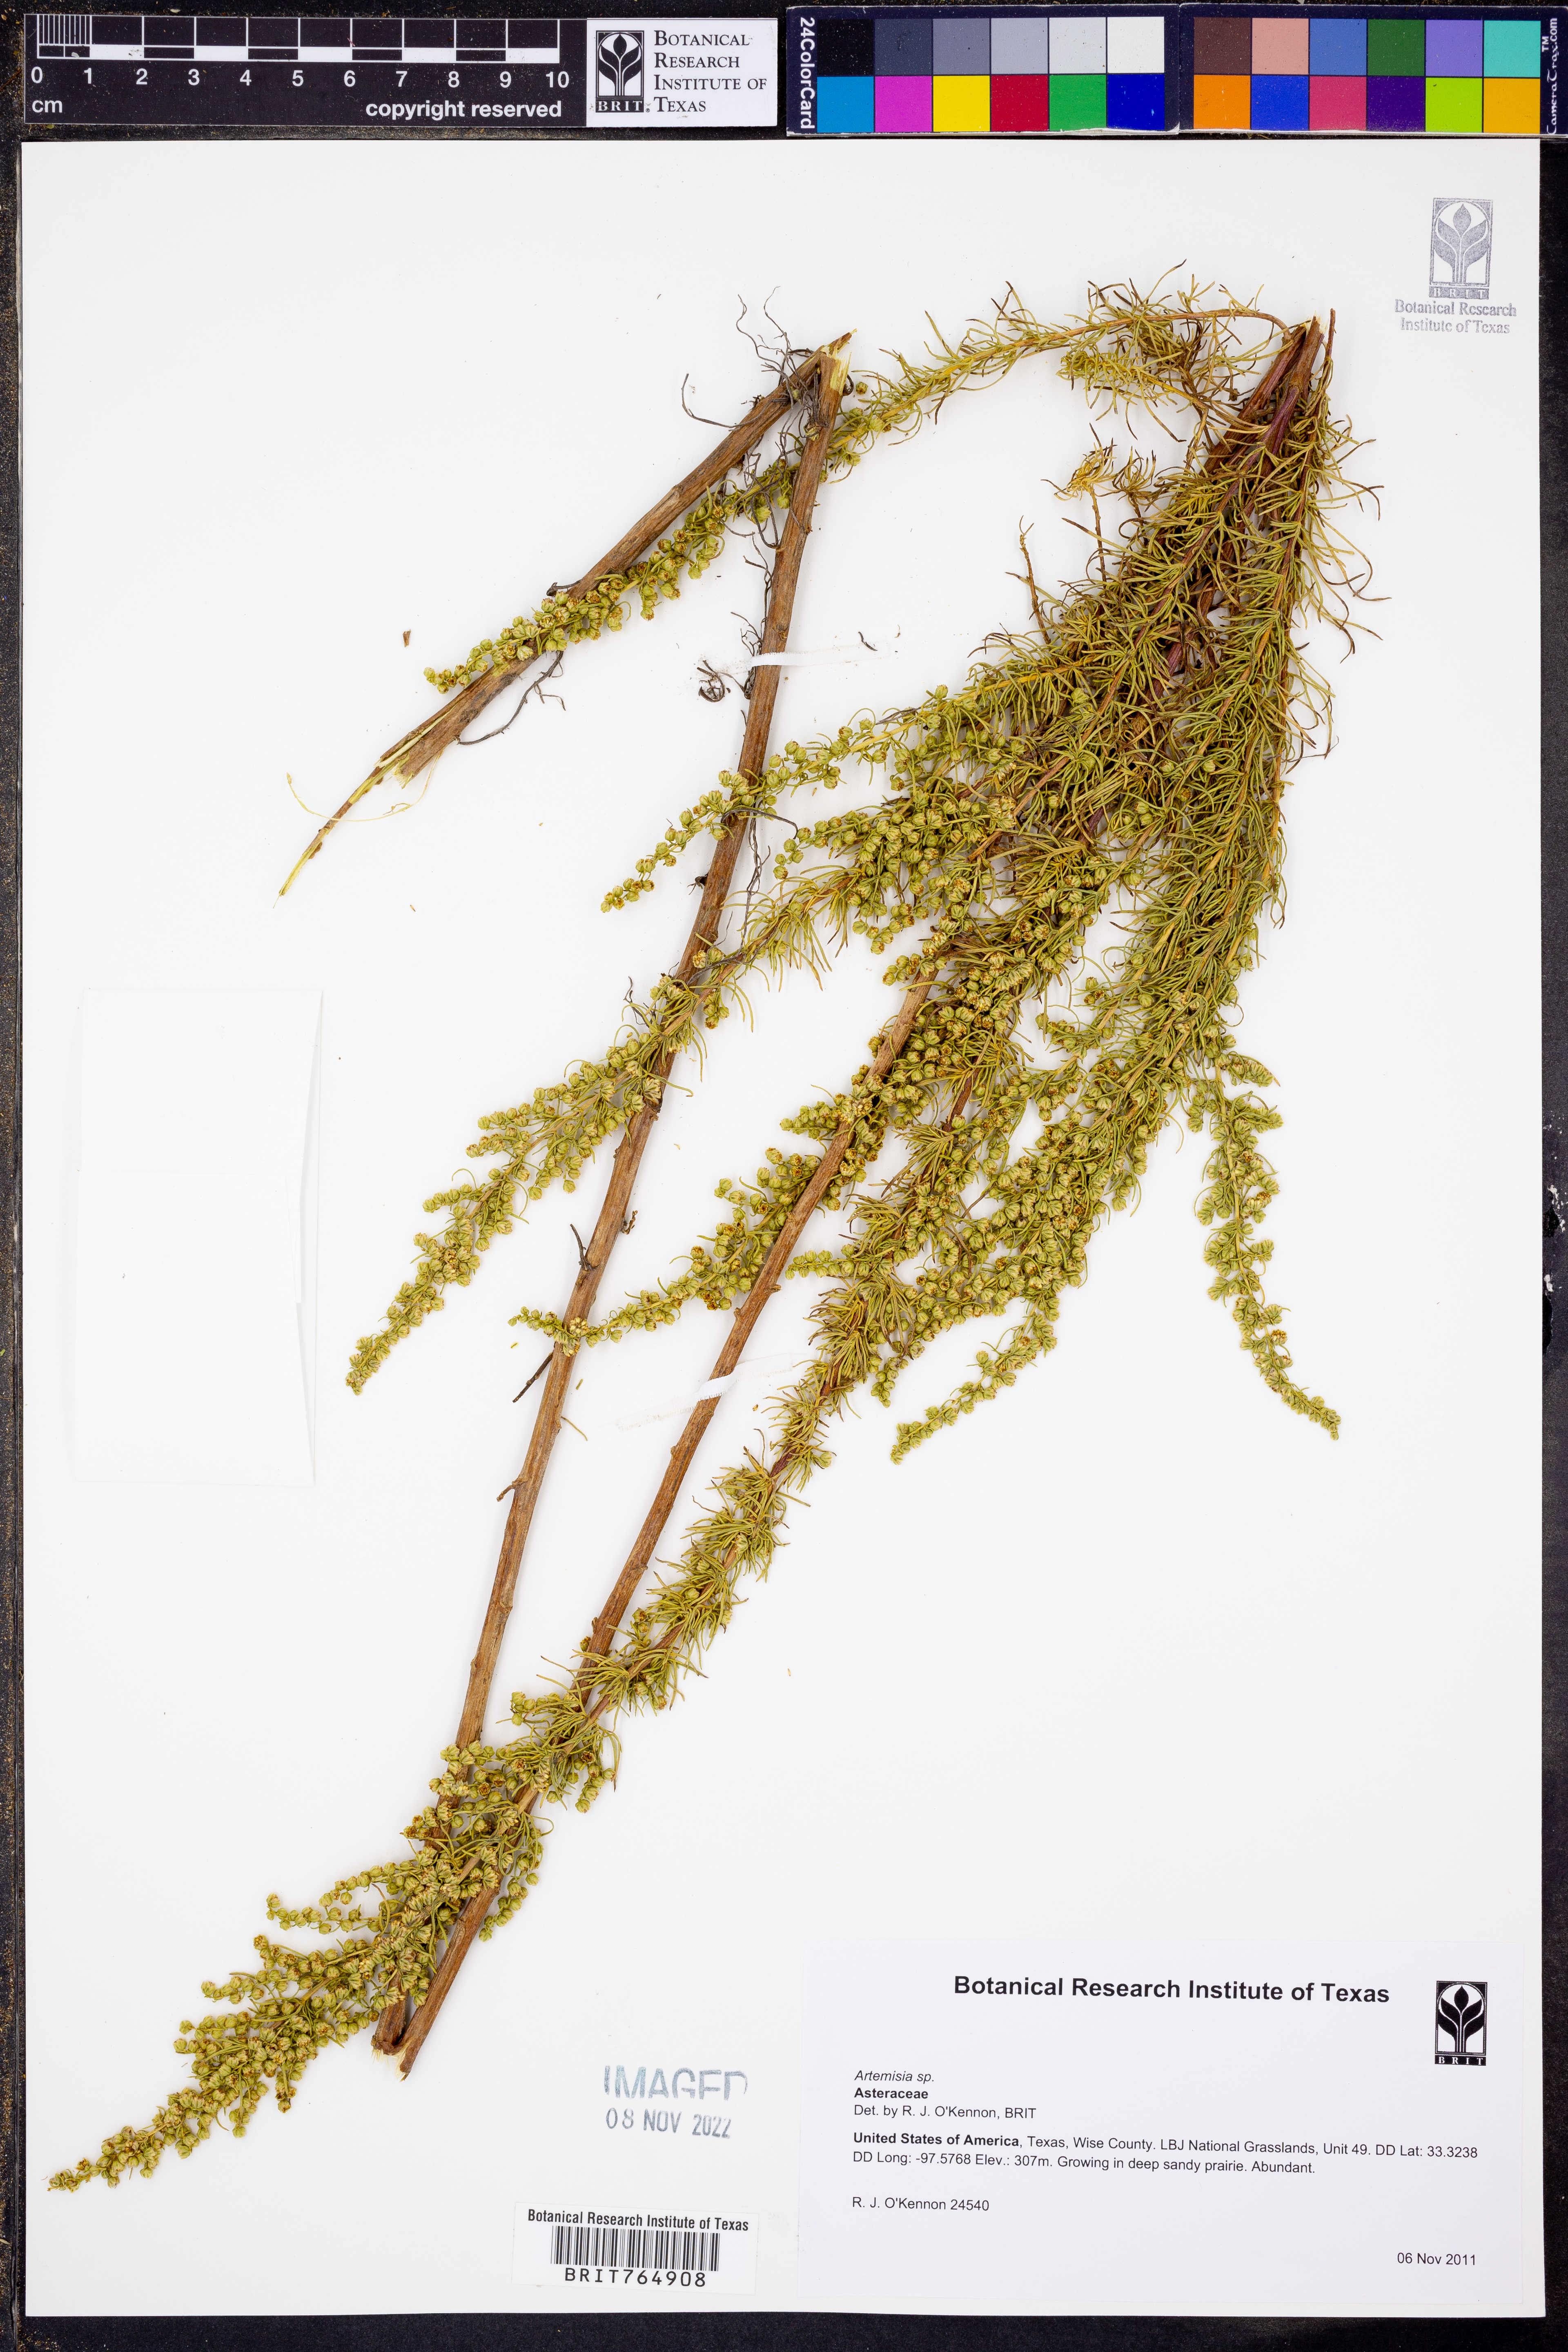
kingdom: Plantae
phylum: Tracheophyta
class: Magnoliopsida
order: Asterales
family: Asteraceae
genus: Artemisia
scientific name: Artemisia
